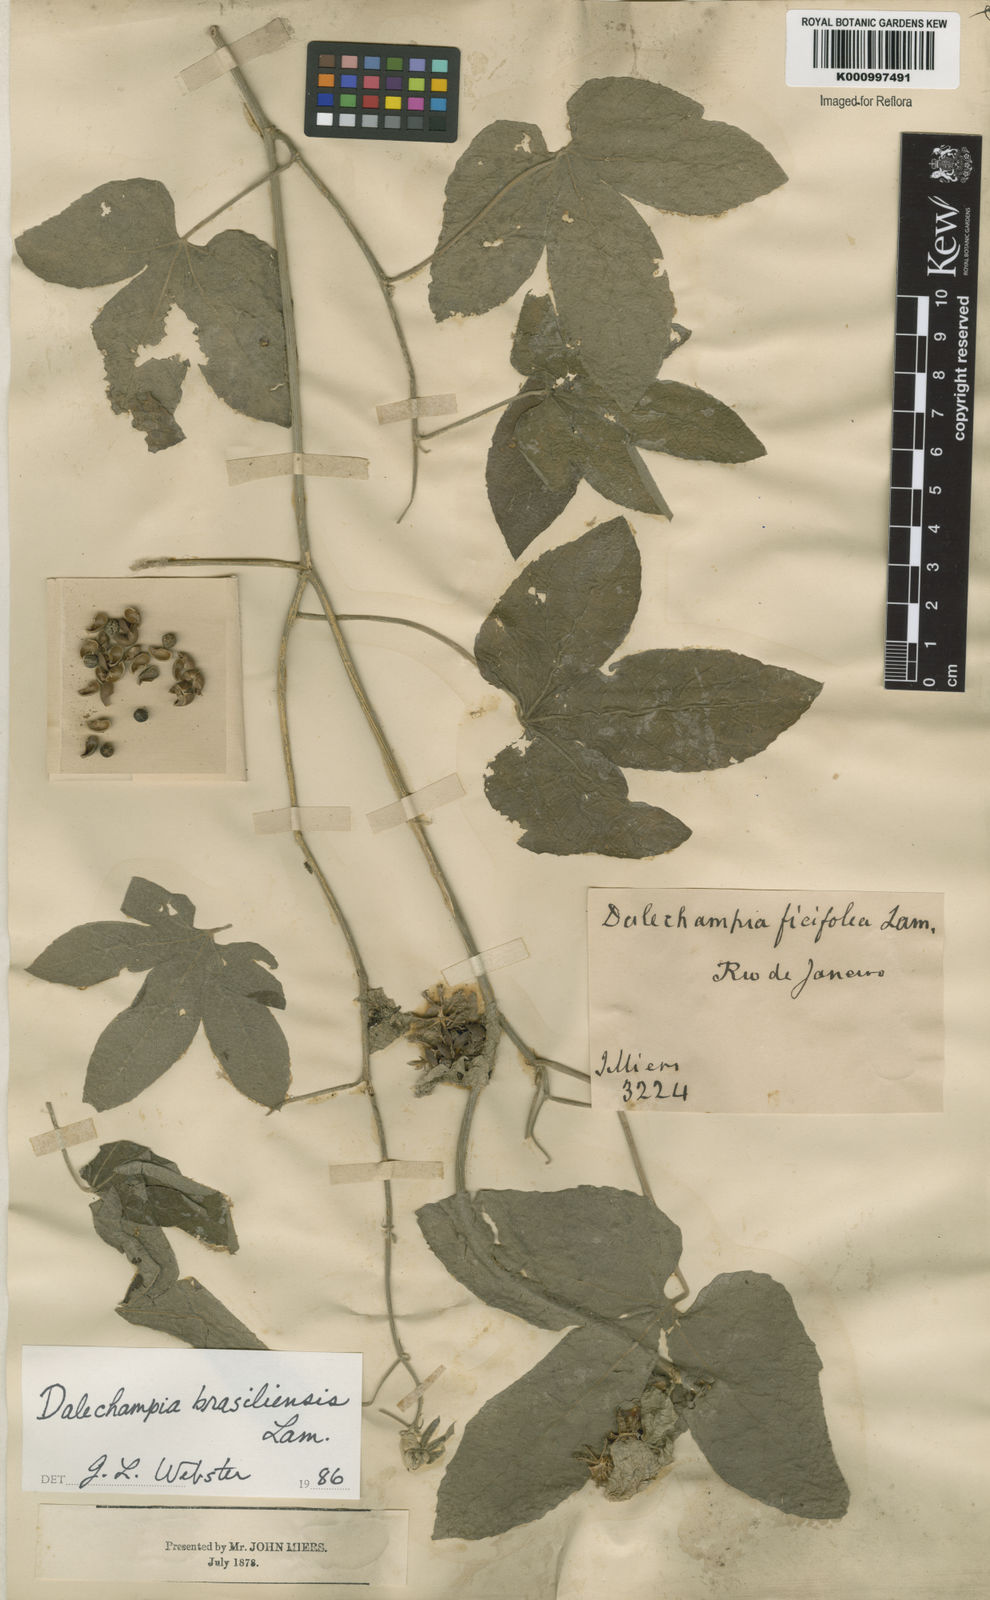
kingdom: Plantae
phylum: Tracheophyta
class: Magnoliopsida
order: Malpighiales
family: Euphorbiaceae
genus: Dalechampia
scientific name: Dalechampia brasiliensis
